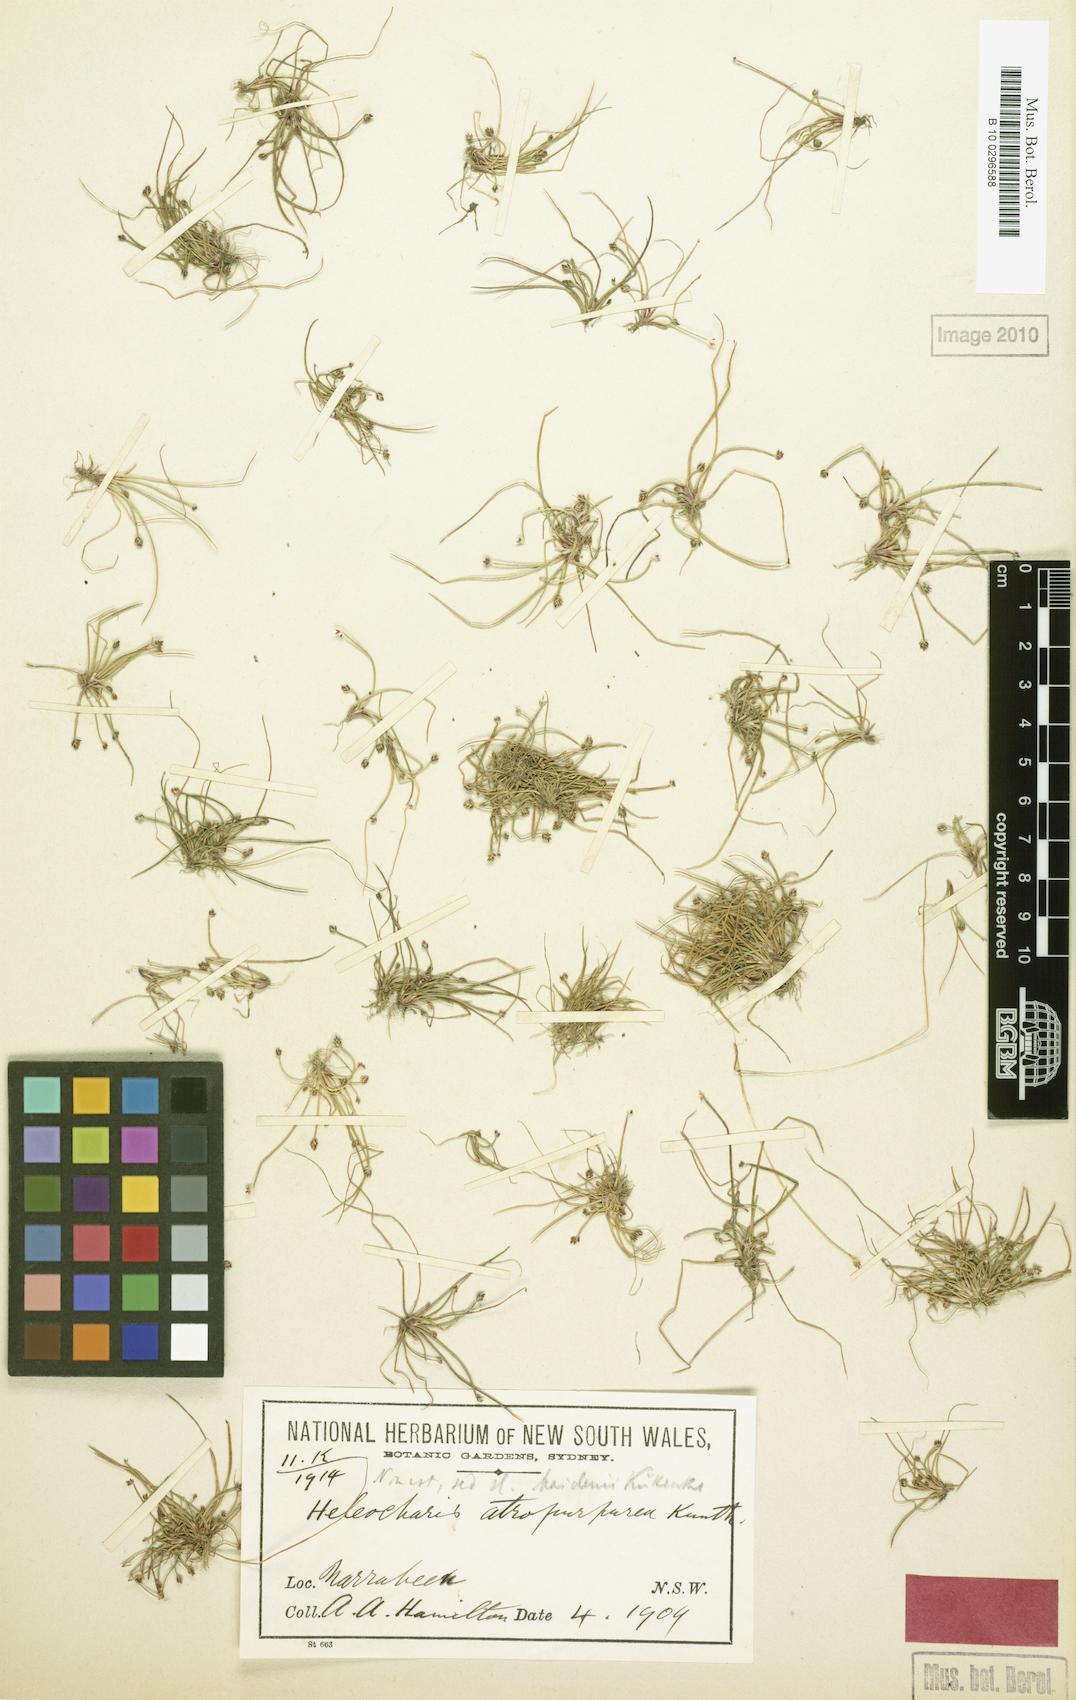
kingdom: Plantae
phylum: Tracheophyta
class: Liliopsida
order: Poales
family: Cyperaceae
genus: Eleocharis
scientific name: Eleocharis maidenii
